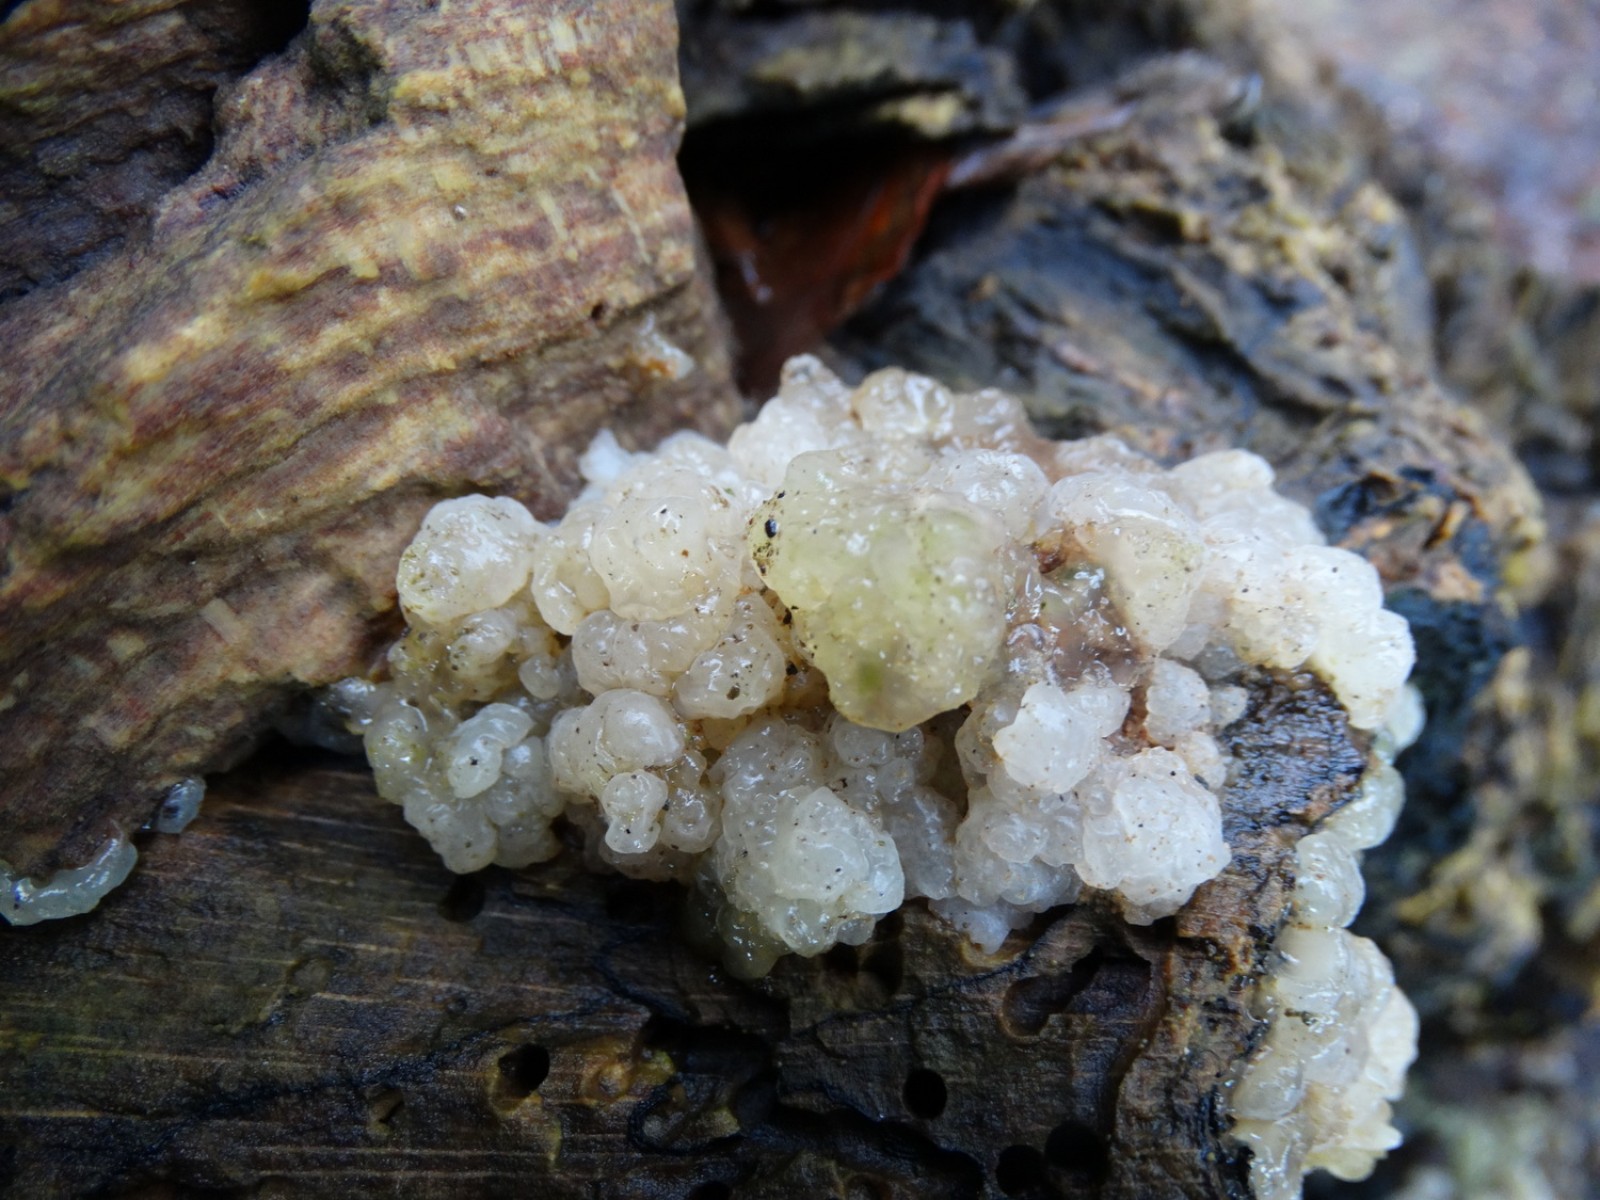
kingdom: Fungi
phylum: Basidiomycota
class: Agaricomycetes
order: Auriculariales
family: Hyaloriaceae
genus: Myxarium
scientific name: Myxarium hyalinum
